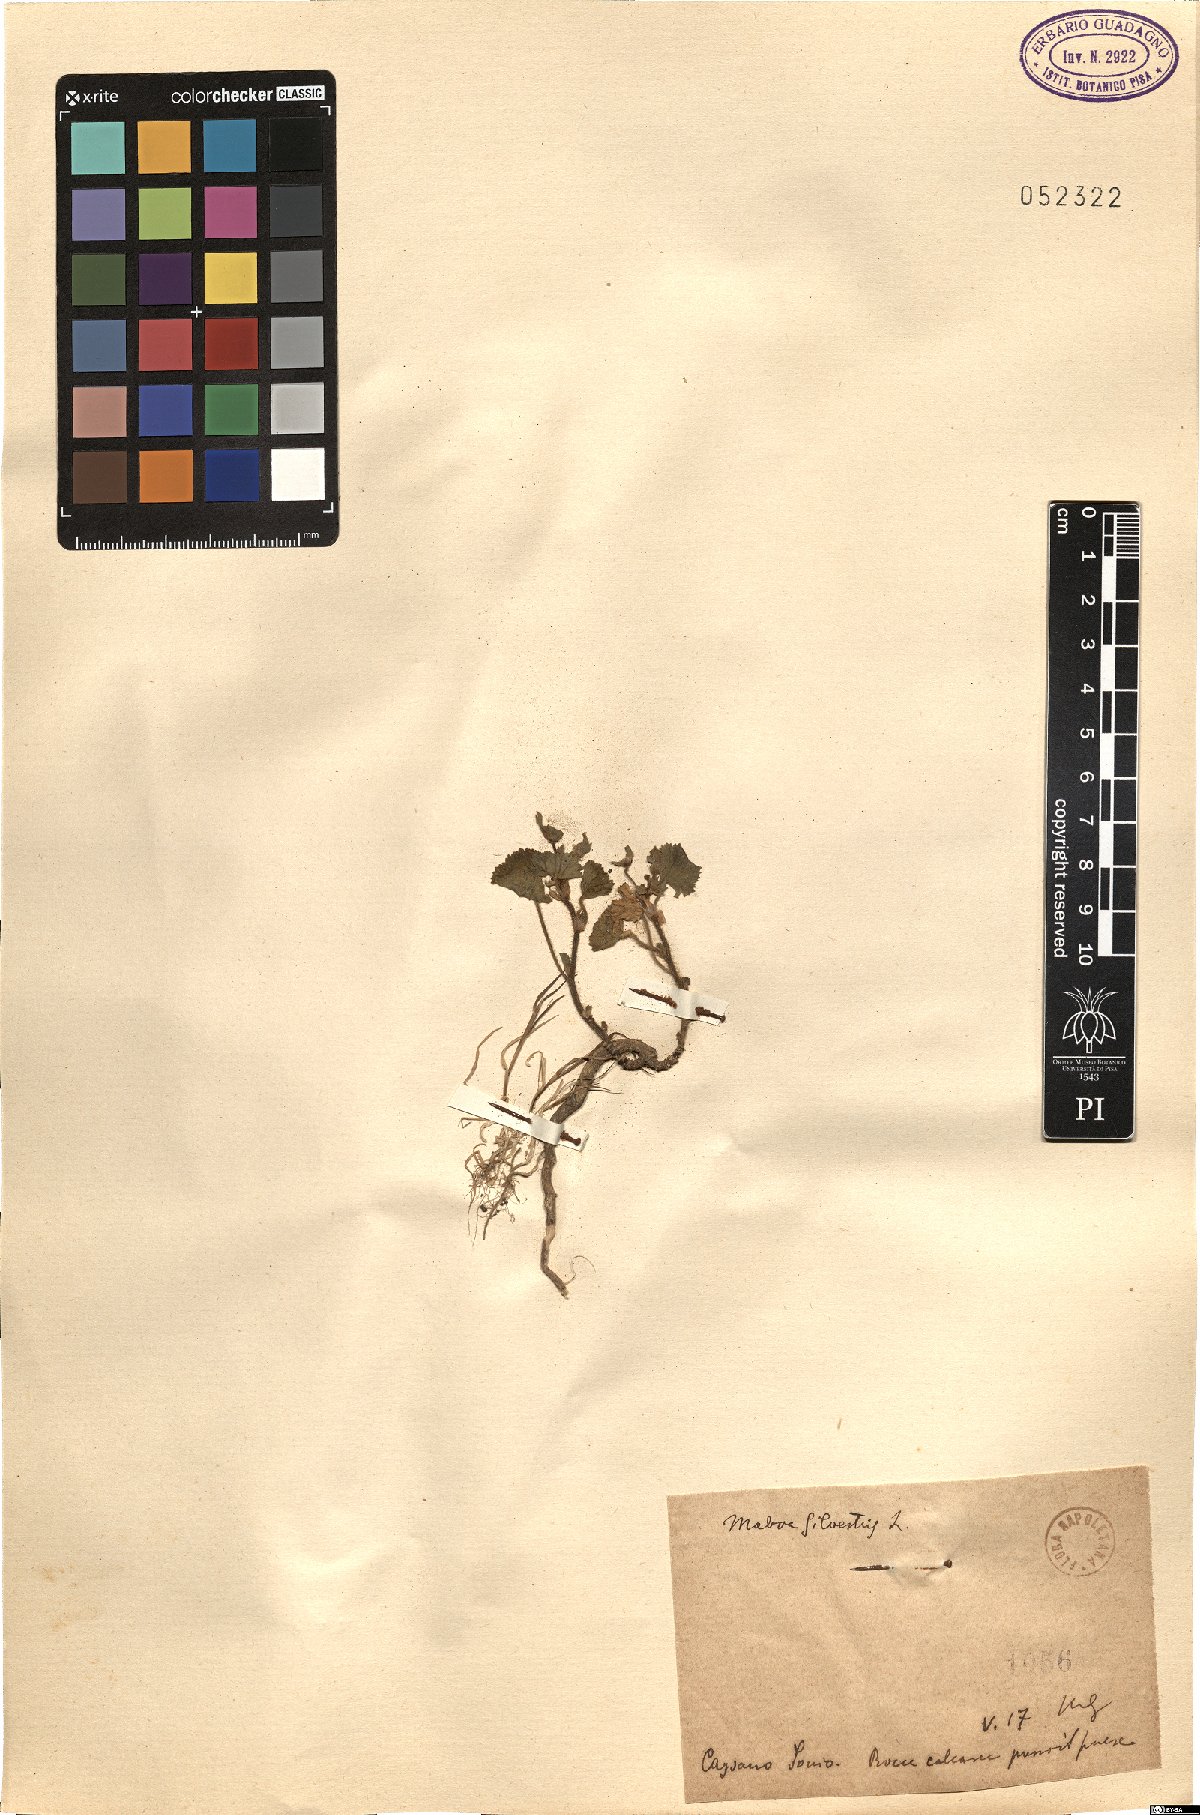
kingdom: Plantae
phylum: Tracheophyta
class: Magnoliopsida
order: Malvales
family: Malvaceae
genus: Malva
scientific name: Malva sylvestris
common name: Common mallow
